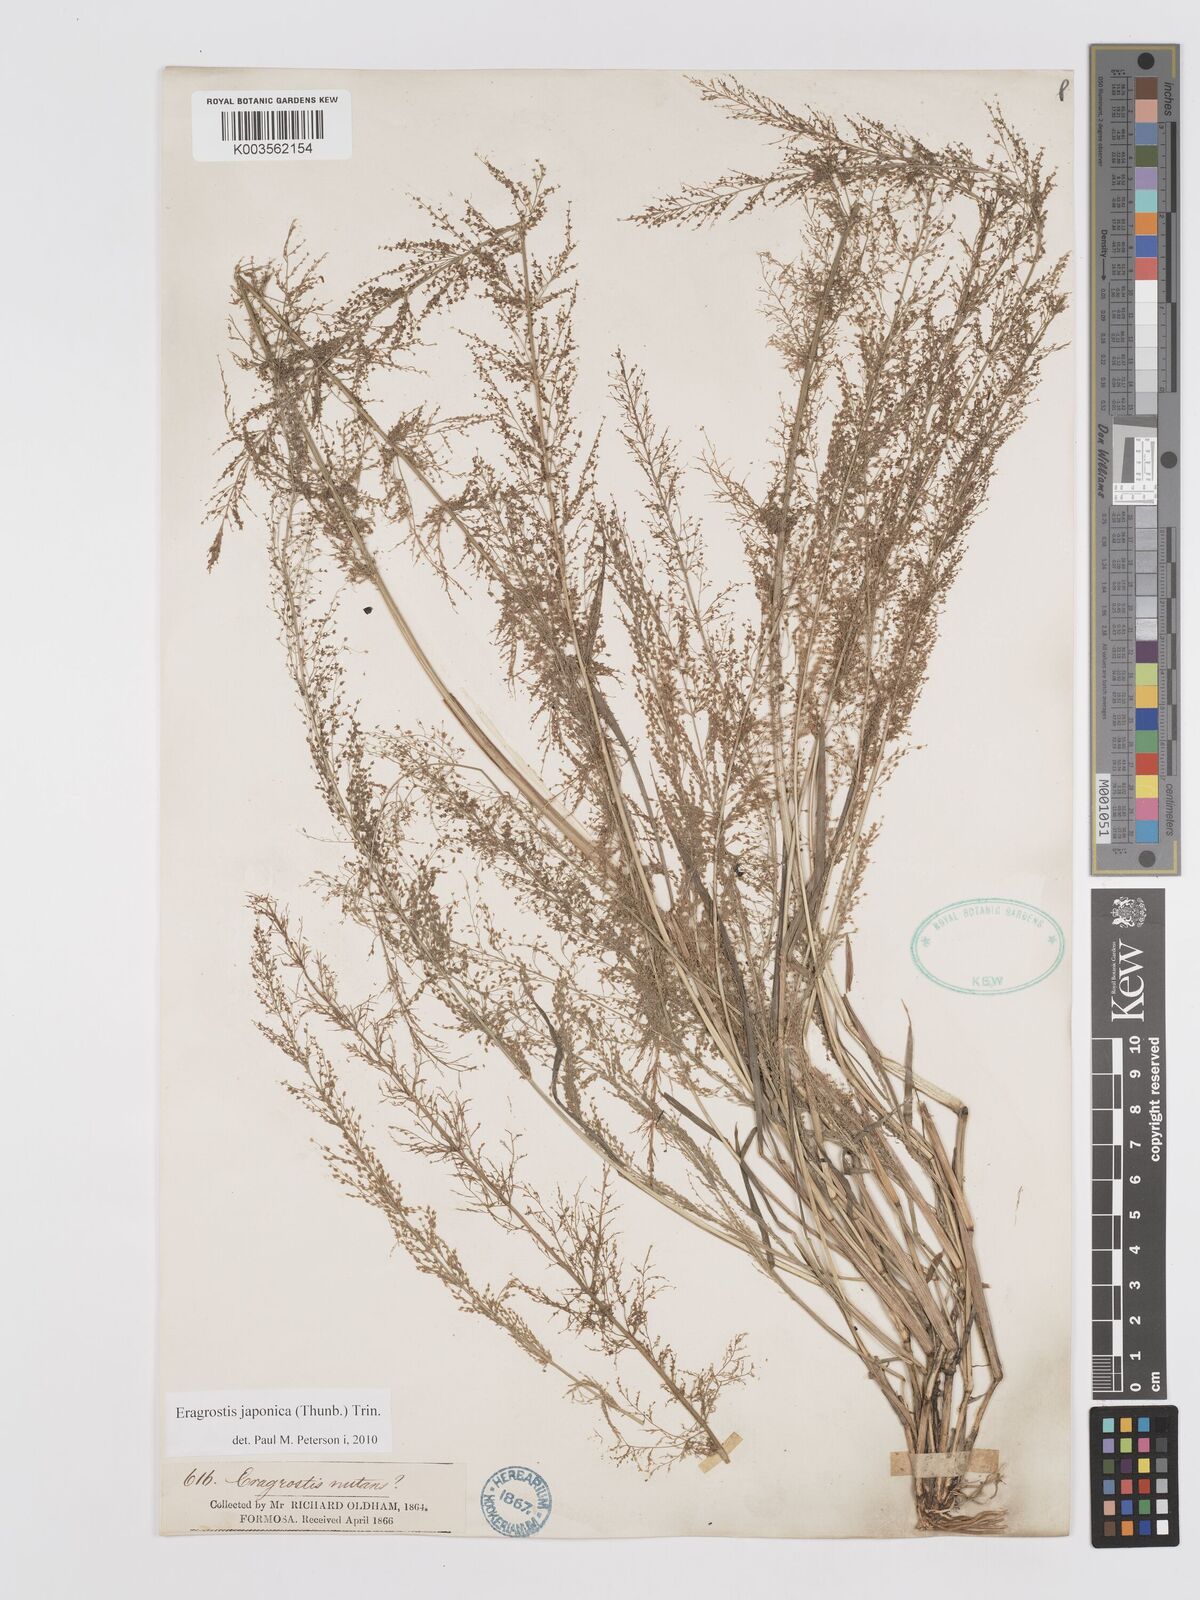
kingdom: Plantae
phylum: Tracheophyta
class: Liliopsida
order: Poales
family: Poaceae
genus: Eragrostis
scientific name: Eragrostis japonica
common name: Pond lovegrass
